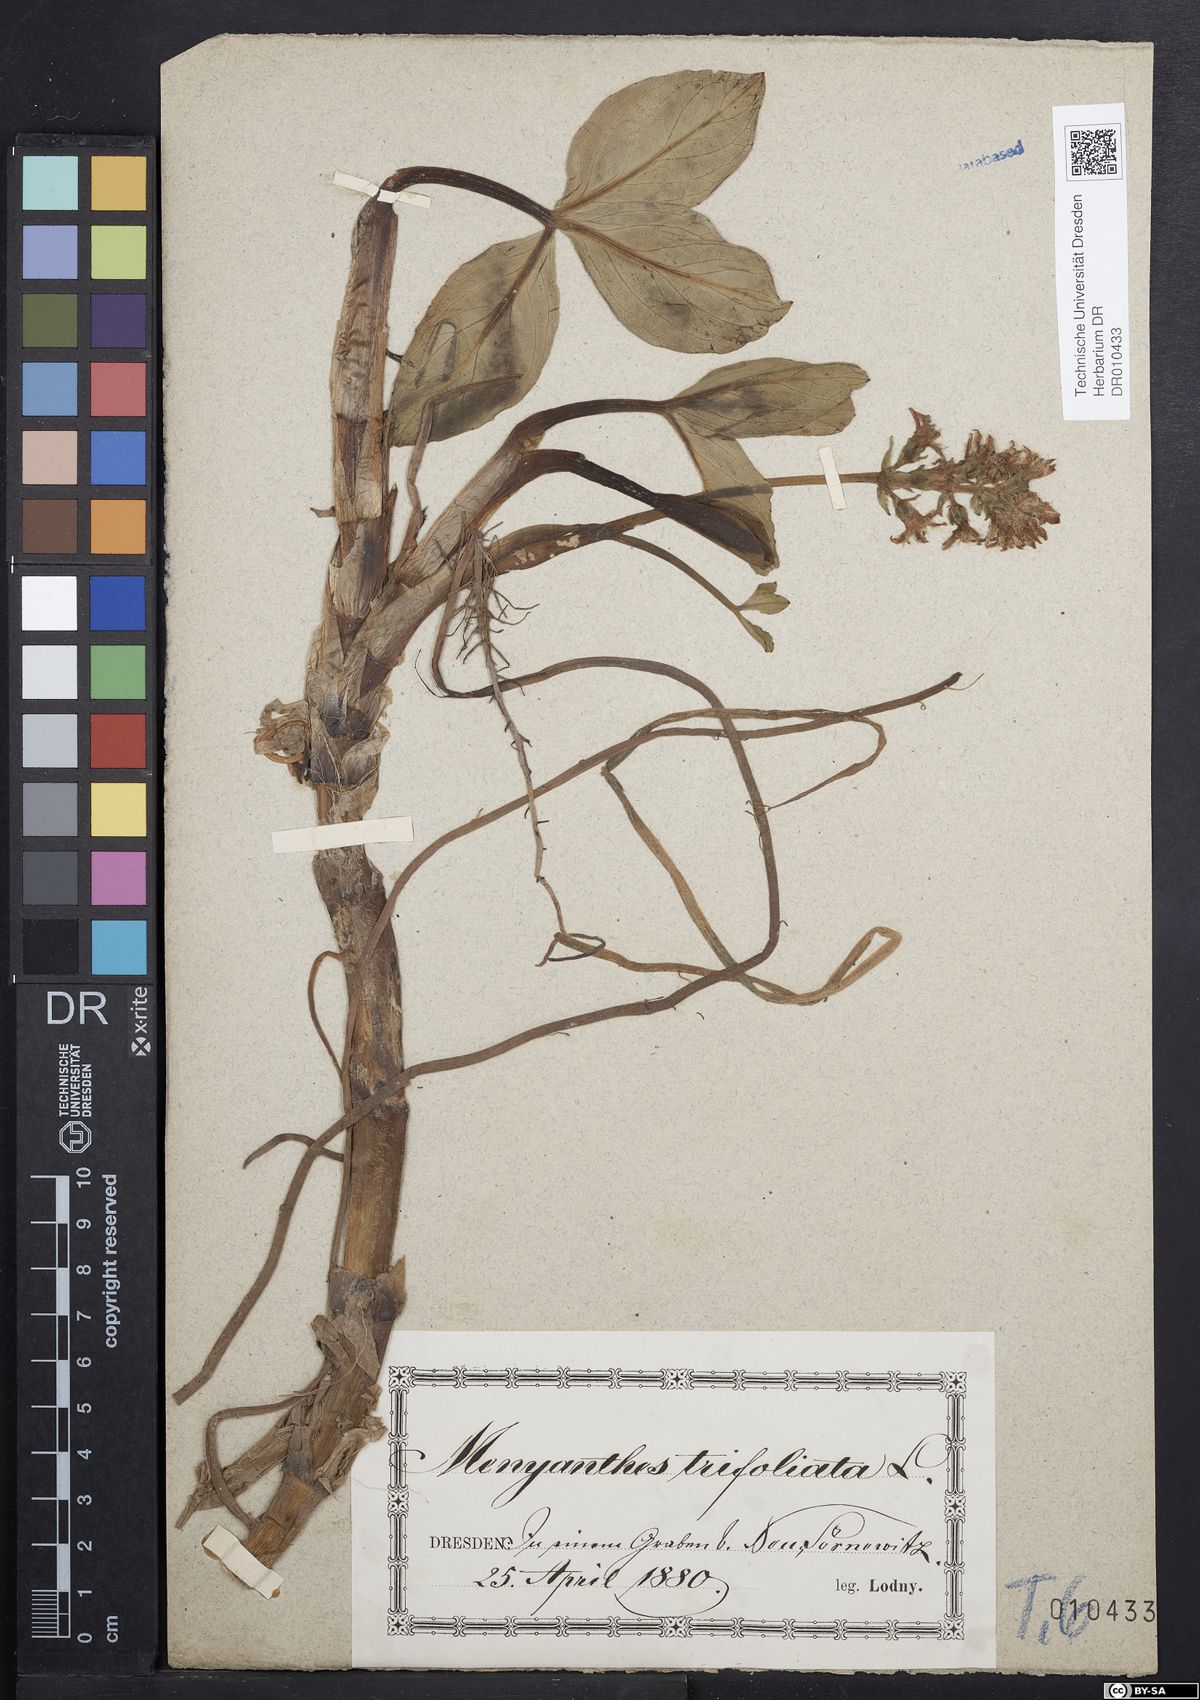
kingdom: Plantae
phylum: Tracheophyta
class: Magnoliopsida
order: Asterales
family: Menyanthaceae
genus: Menyanthes
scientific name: Menyanthes trifoliata
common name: Bogbean
